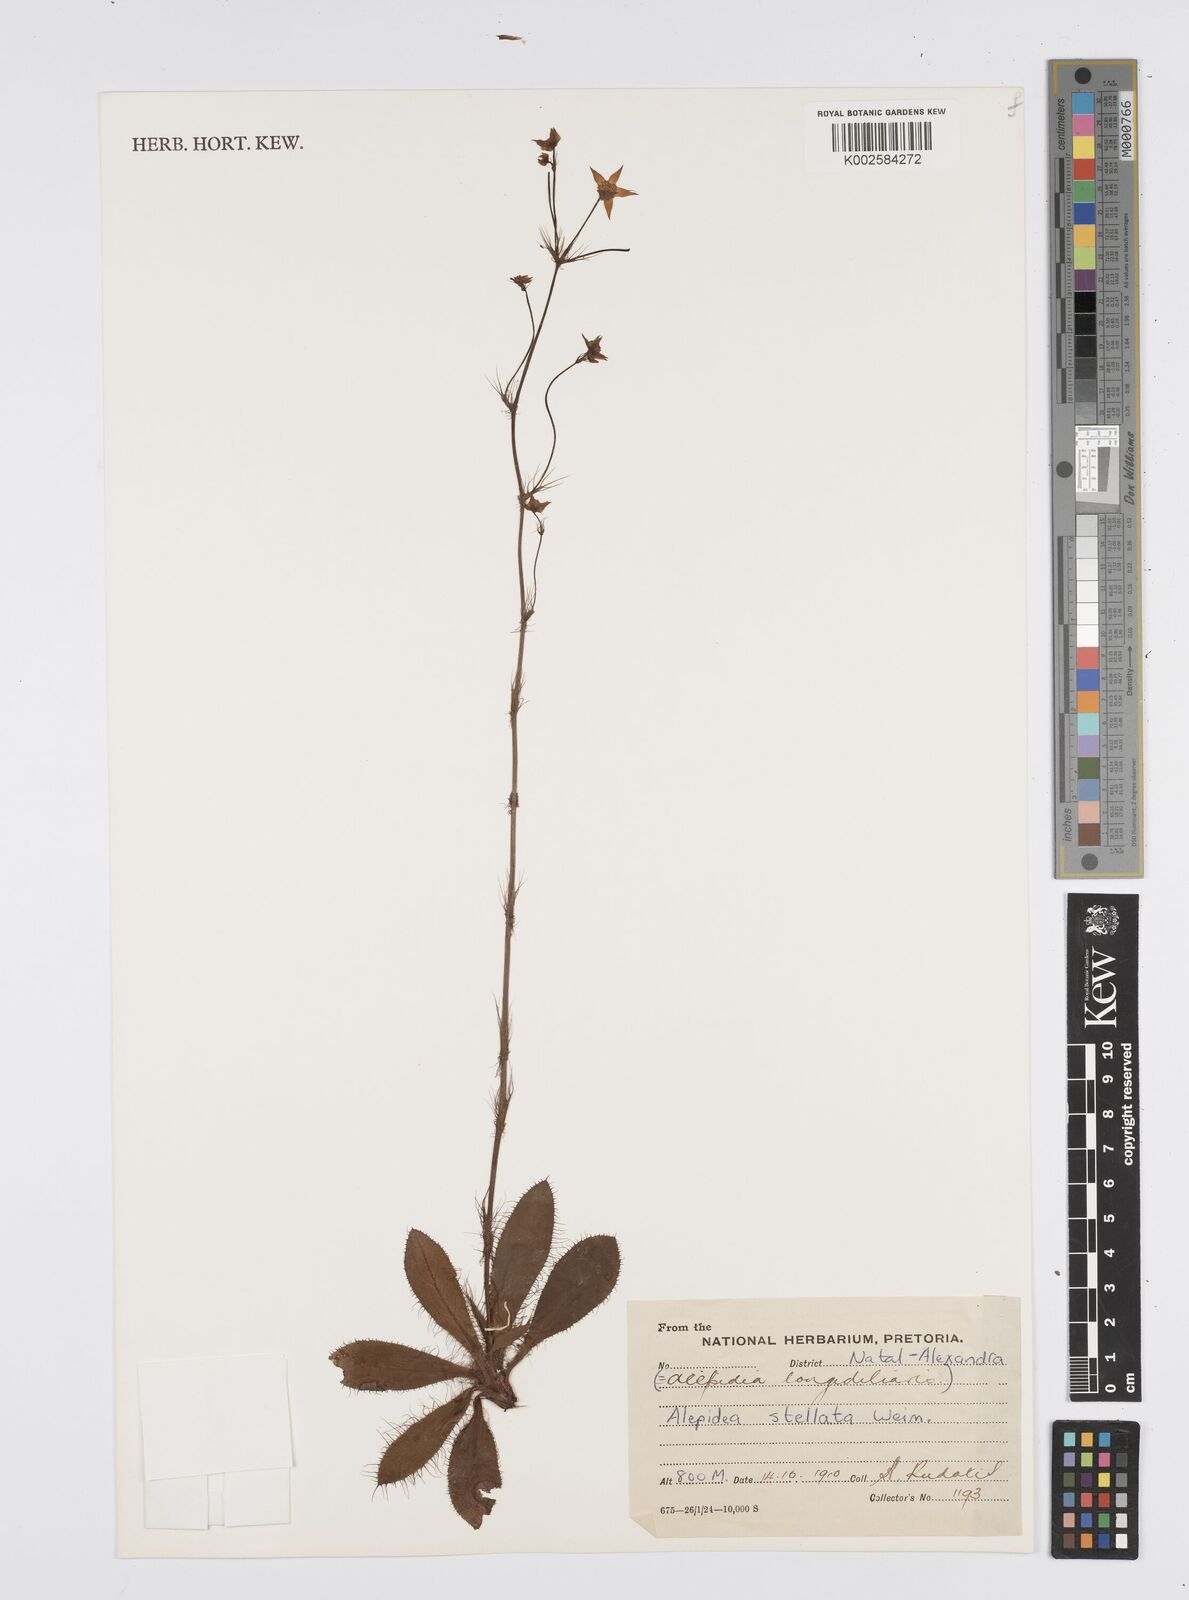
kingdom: Plantae
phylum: Tracheophyta
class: Magnoliopsida
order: Apiales
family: Apiaceae
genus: Alepidea
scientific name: Alepidea stellata
